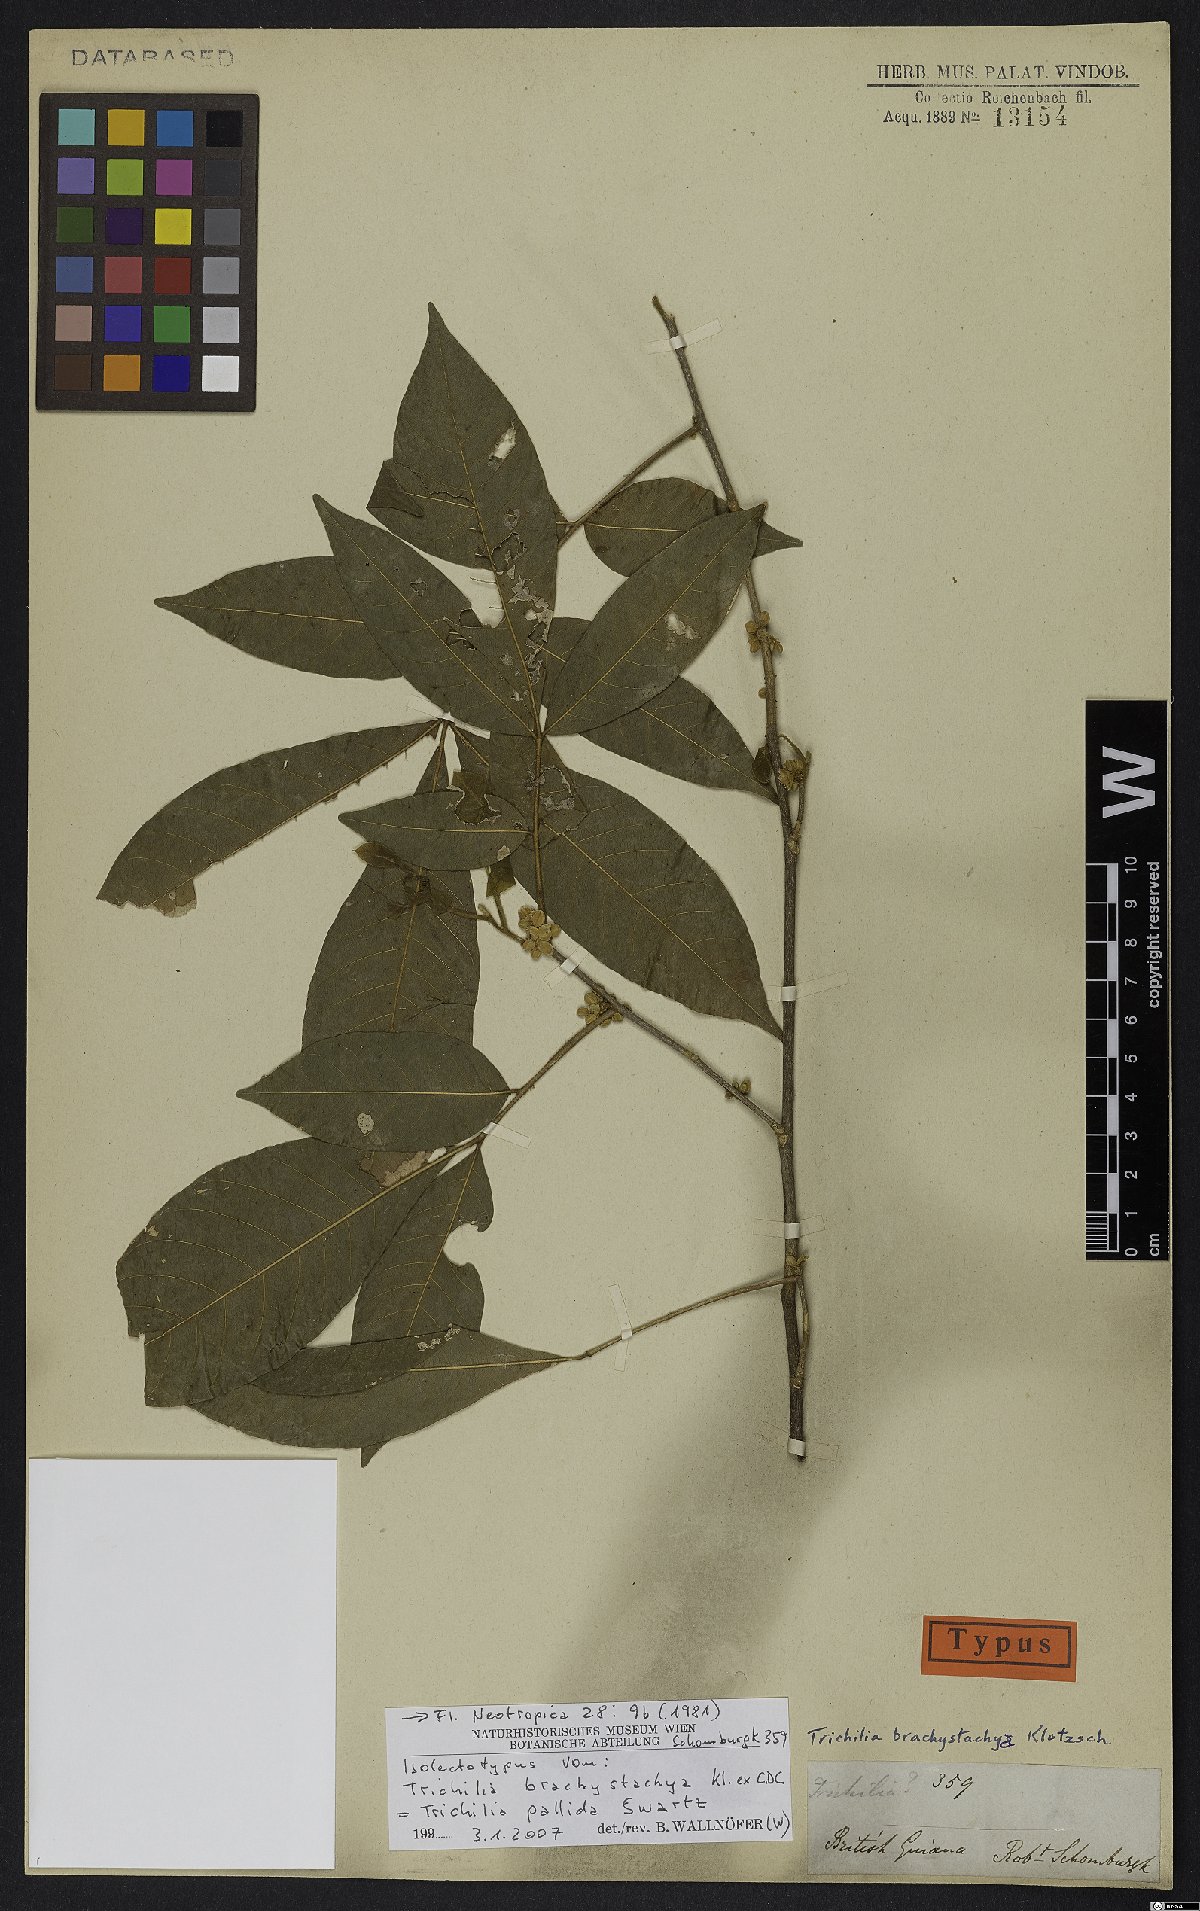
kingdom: Plantae
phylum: Tracheophyta
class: Magnoliopsida
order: Sapindales
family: Meliaceae
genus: Trichilia
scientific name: Trichilia pallida
